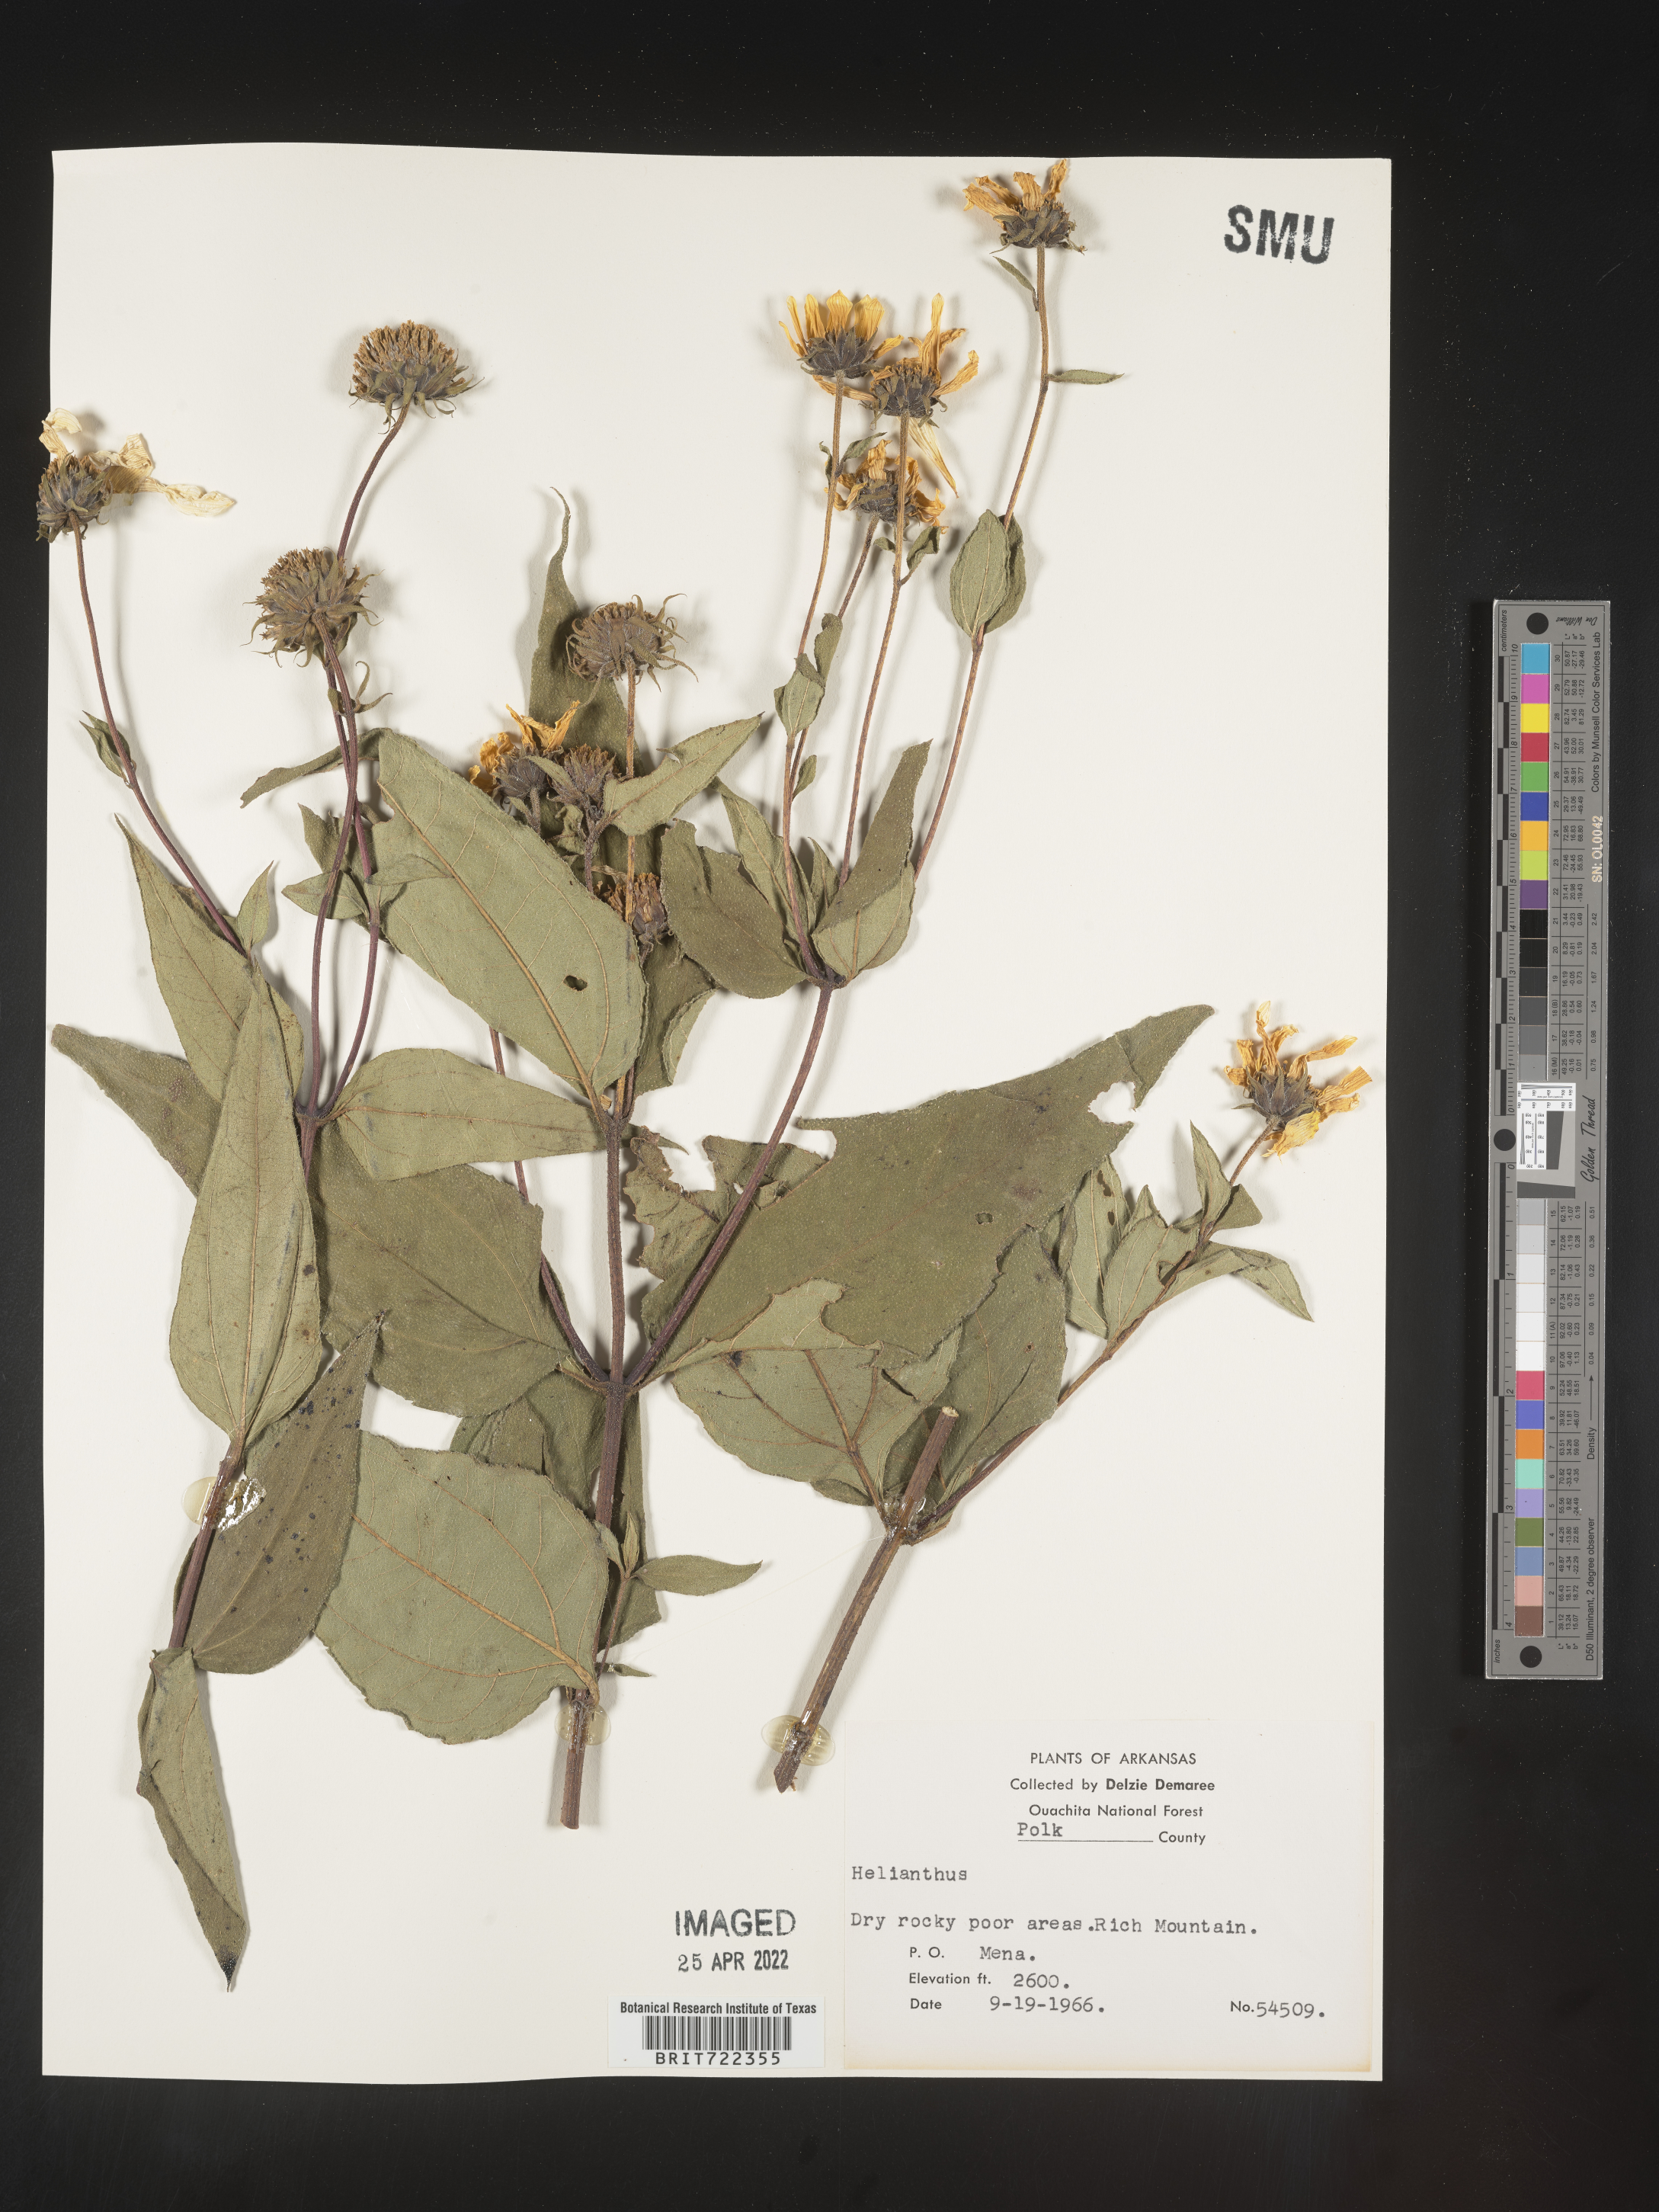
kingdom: Plantae
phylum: Tracheophyta
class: Magnoliopsida
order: Asterales
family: Asteraceae
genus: Helianthus
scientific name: Helianthus hirsutus
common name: Hairy sunflower
